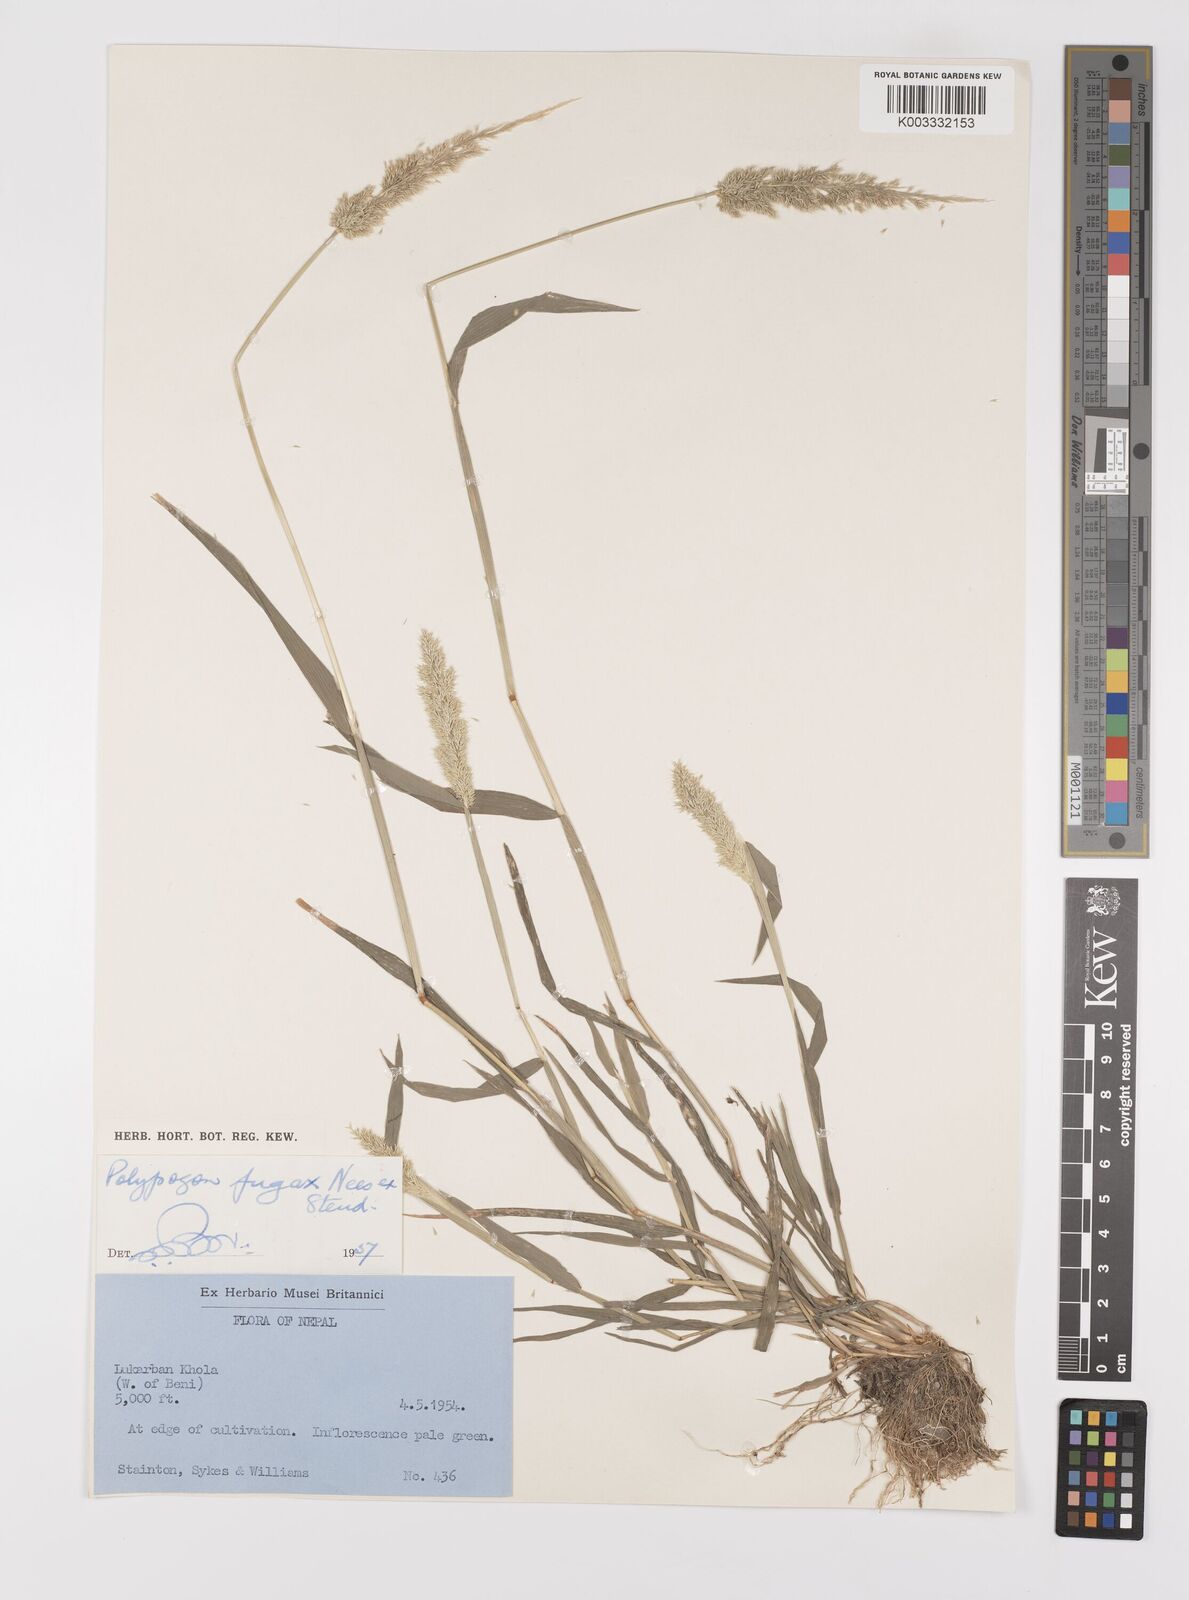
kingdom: Plantae
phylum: Tracheophyta
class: Liliopsida
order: Poales
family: Poaceae
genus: Polypogon
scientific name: Polypogon fugax
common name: Asia minor bluegrass
